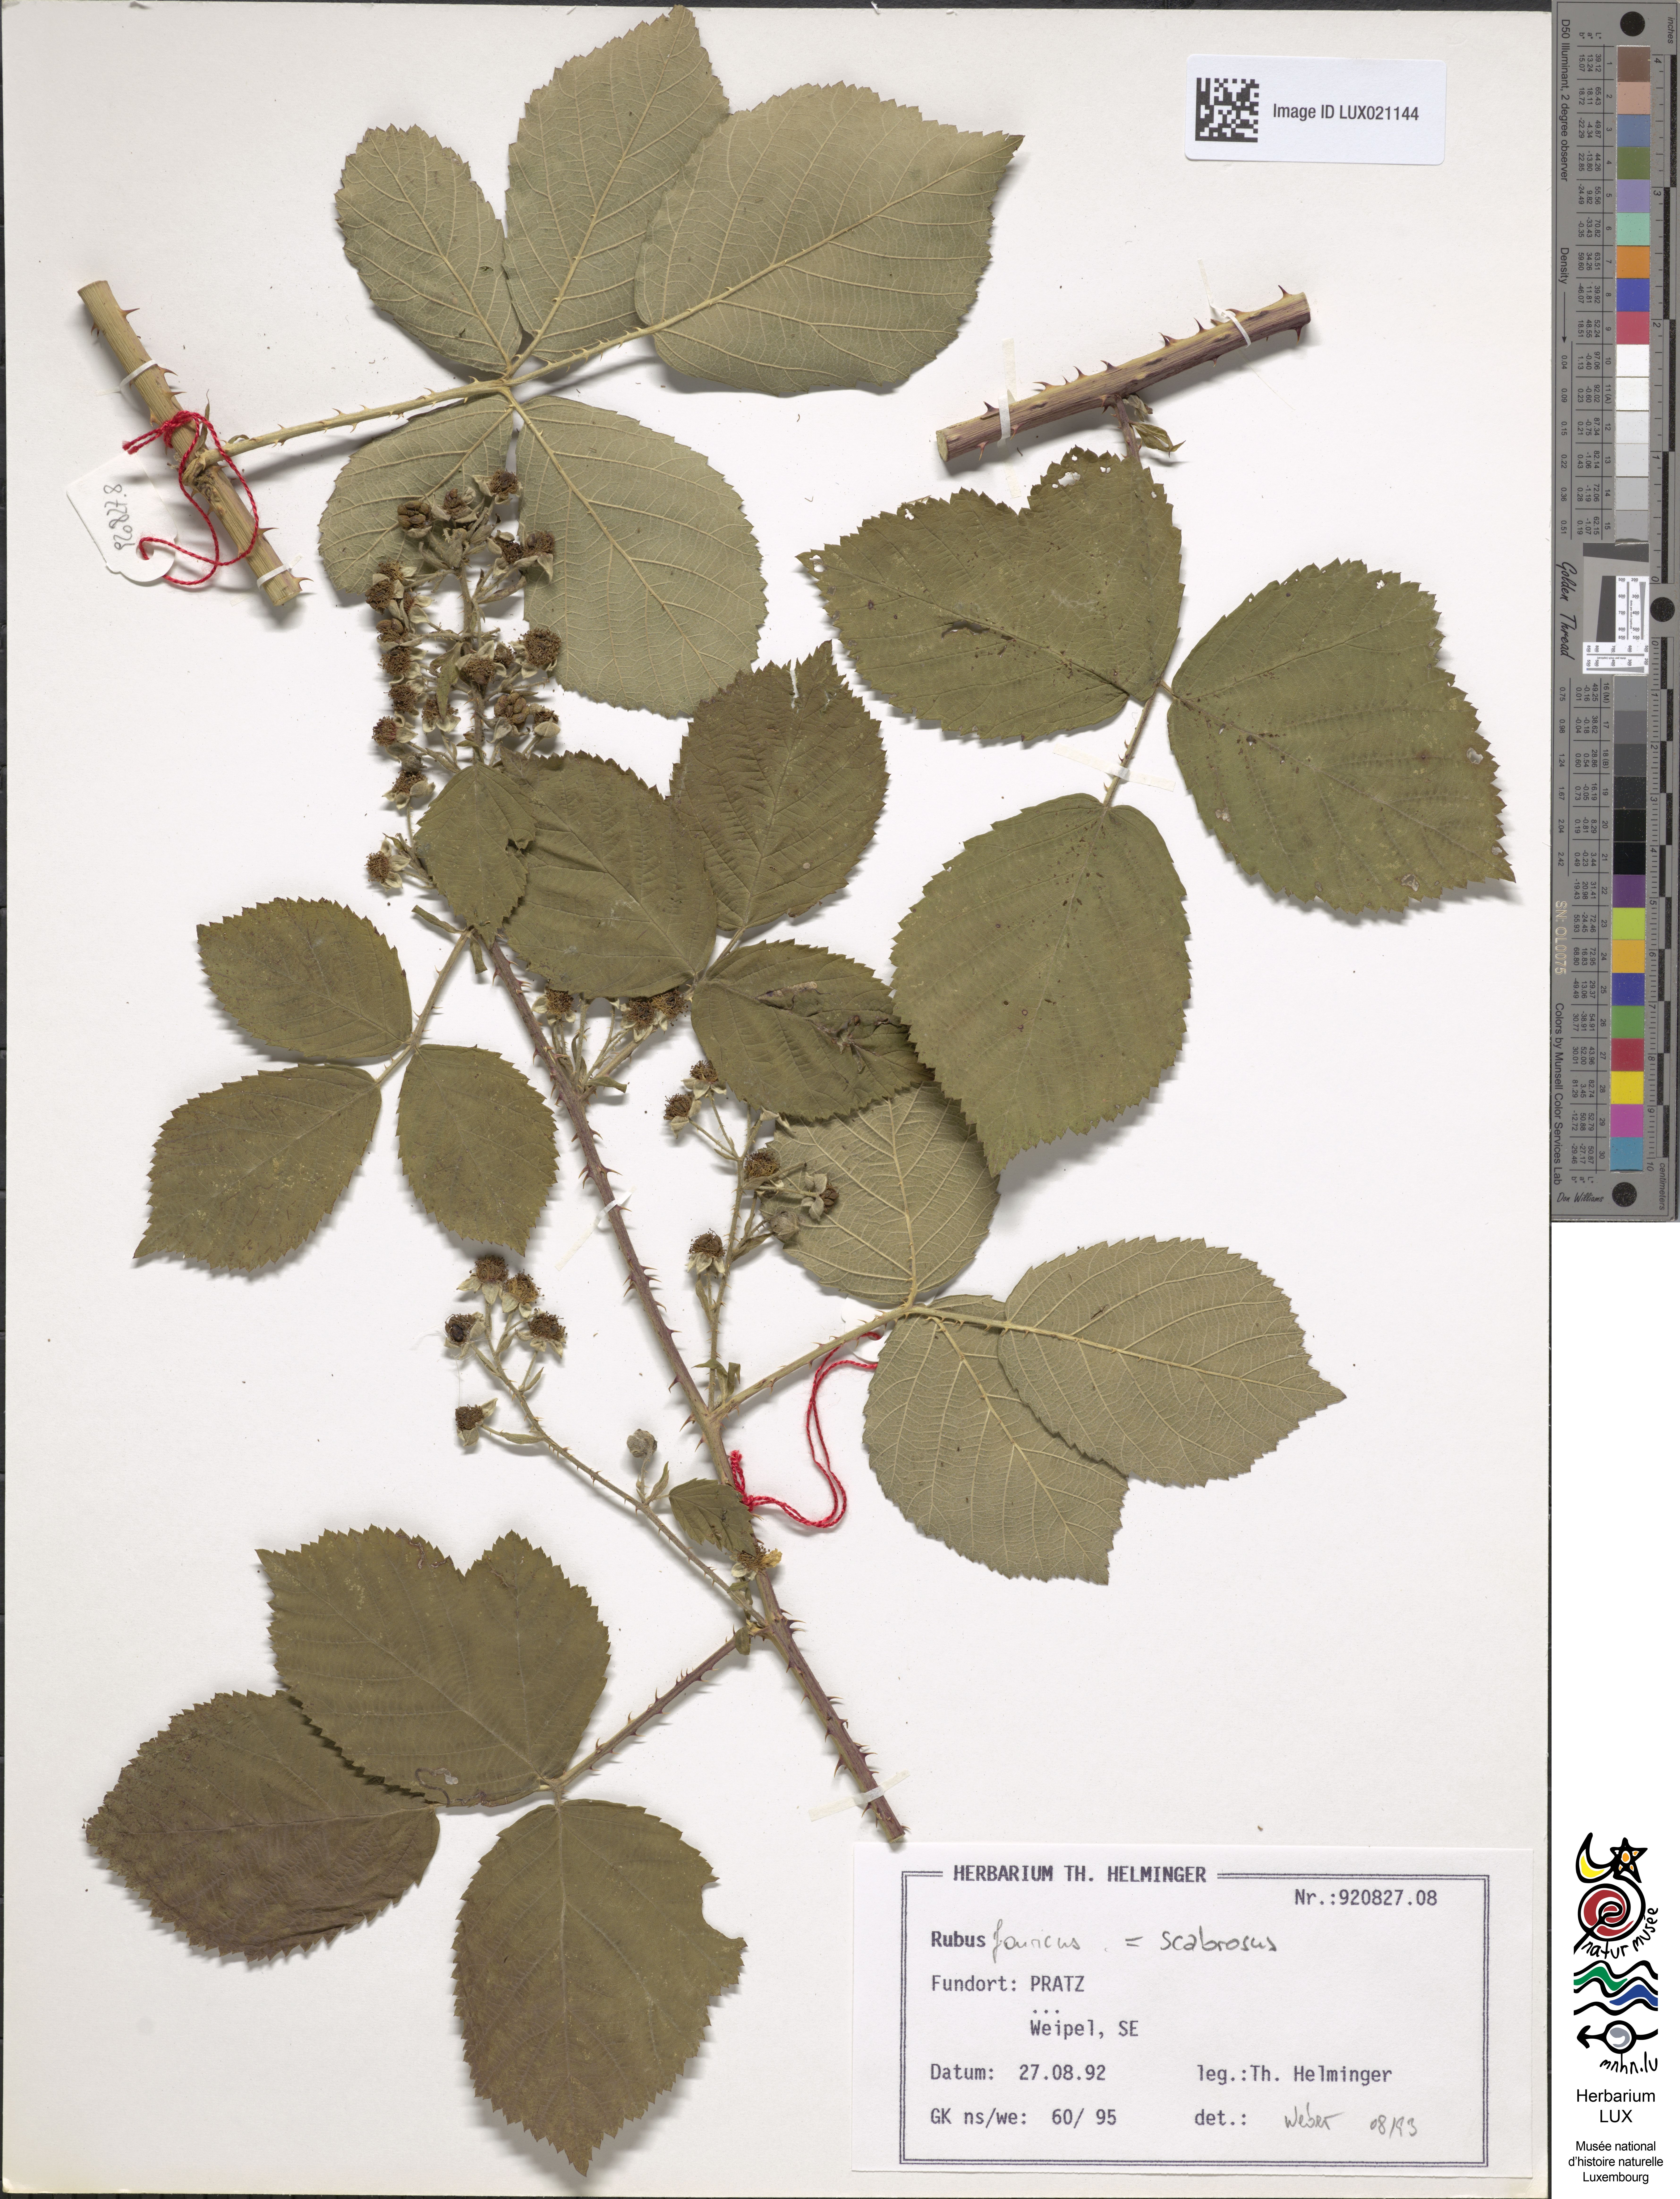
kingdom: Plantae
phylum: Tracheophyta
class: Magnoliopsida
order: Rosales
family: Rosaceae
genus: Rubus
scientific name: Rubus scabrosus
